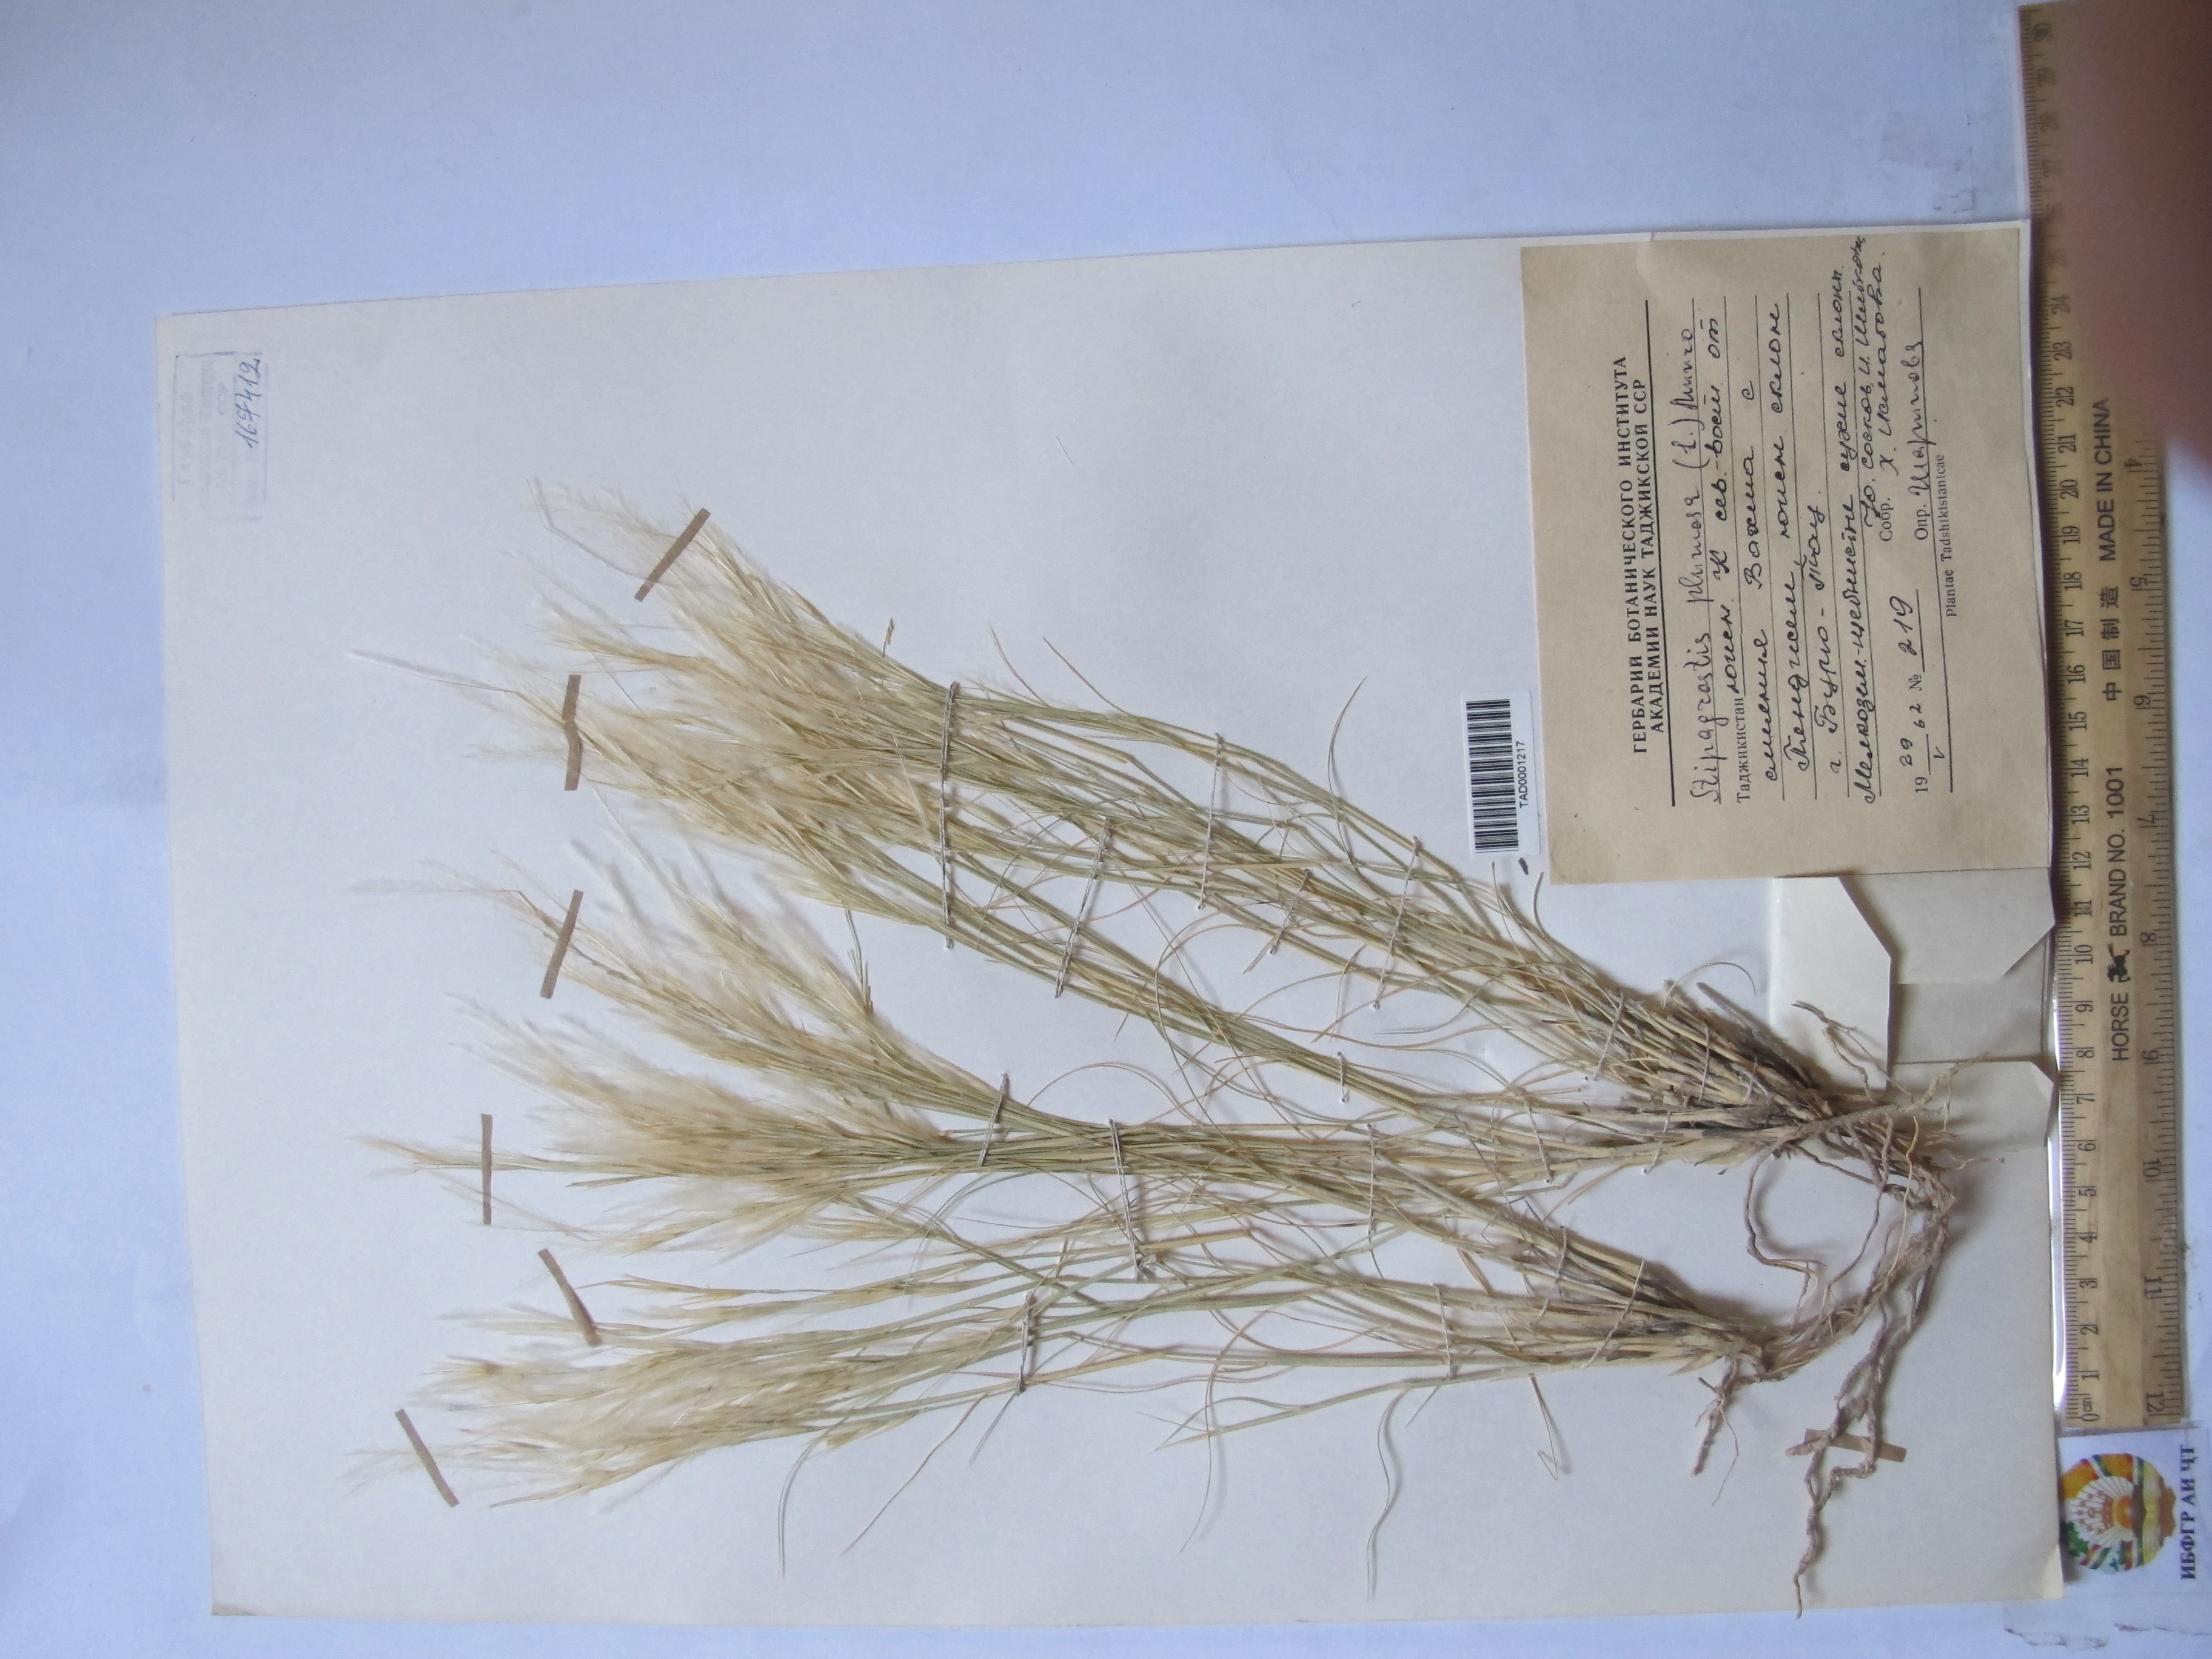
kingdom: Plantae
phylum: Tracheophyta
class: Liliopsida
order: Poales
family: Poaceae
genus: Stipagrostis
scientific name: Stipagrostis plumosa
